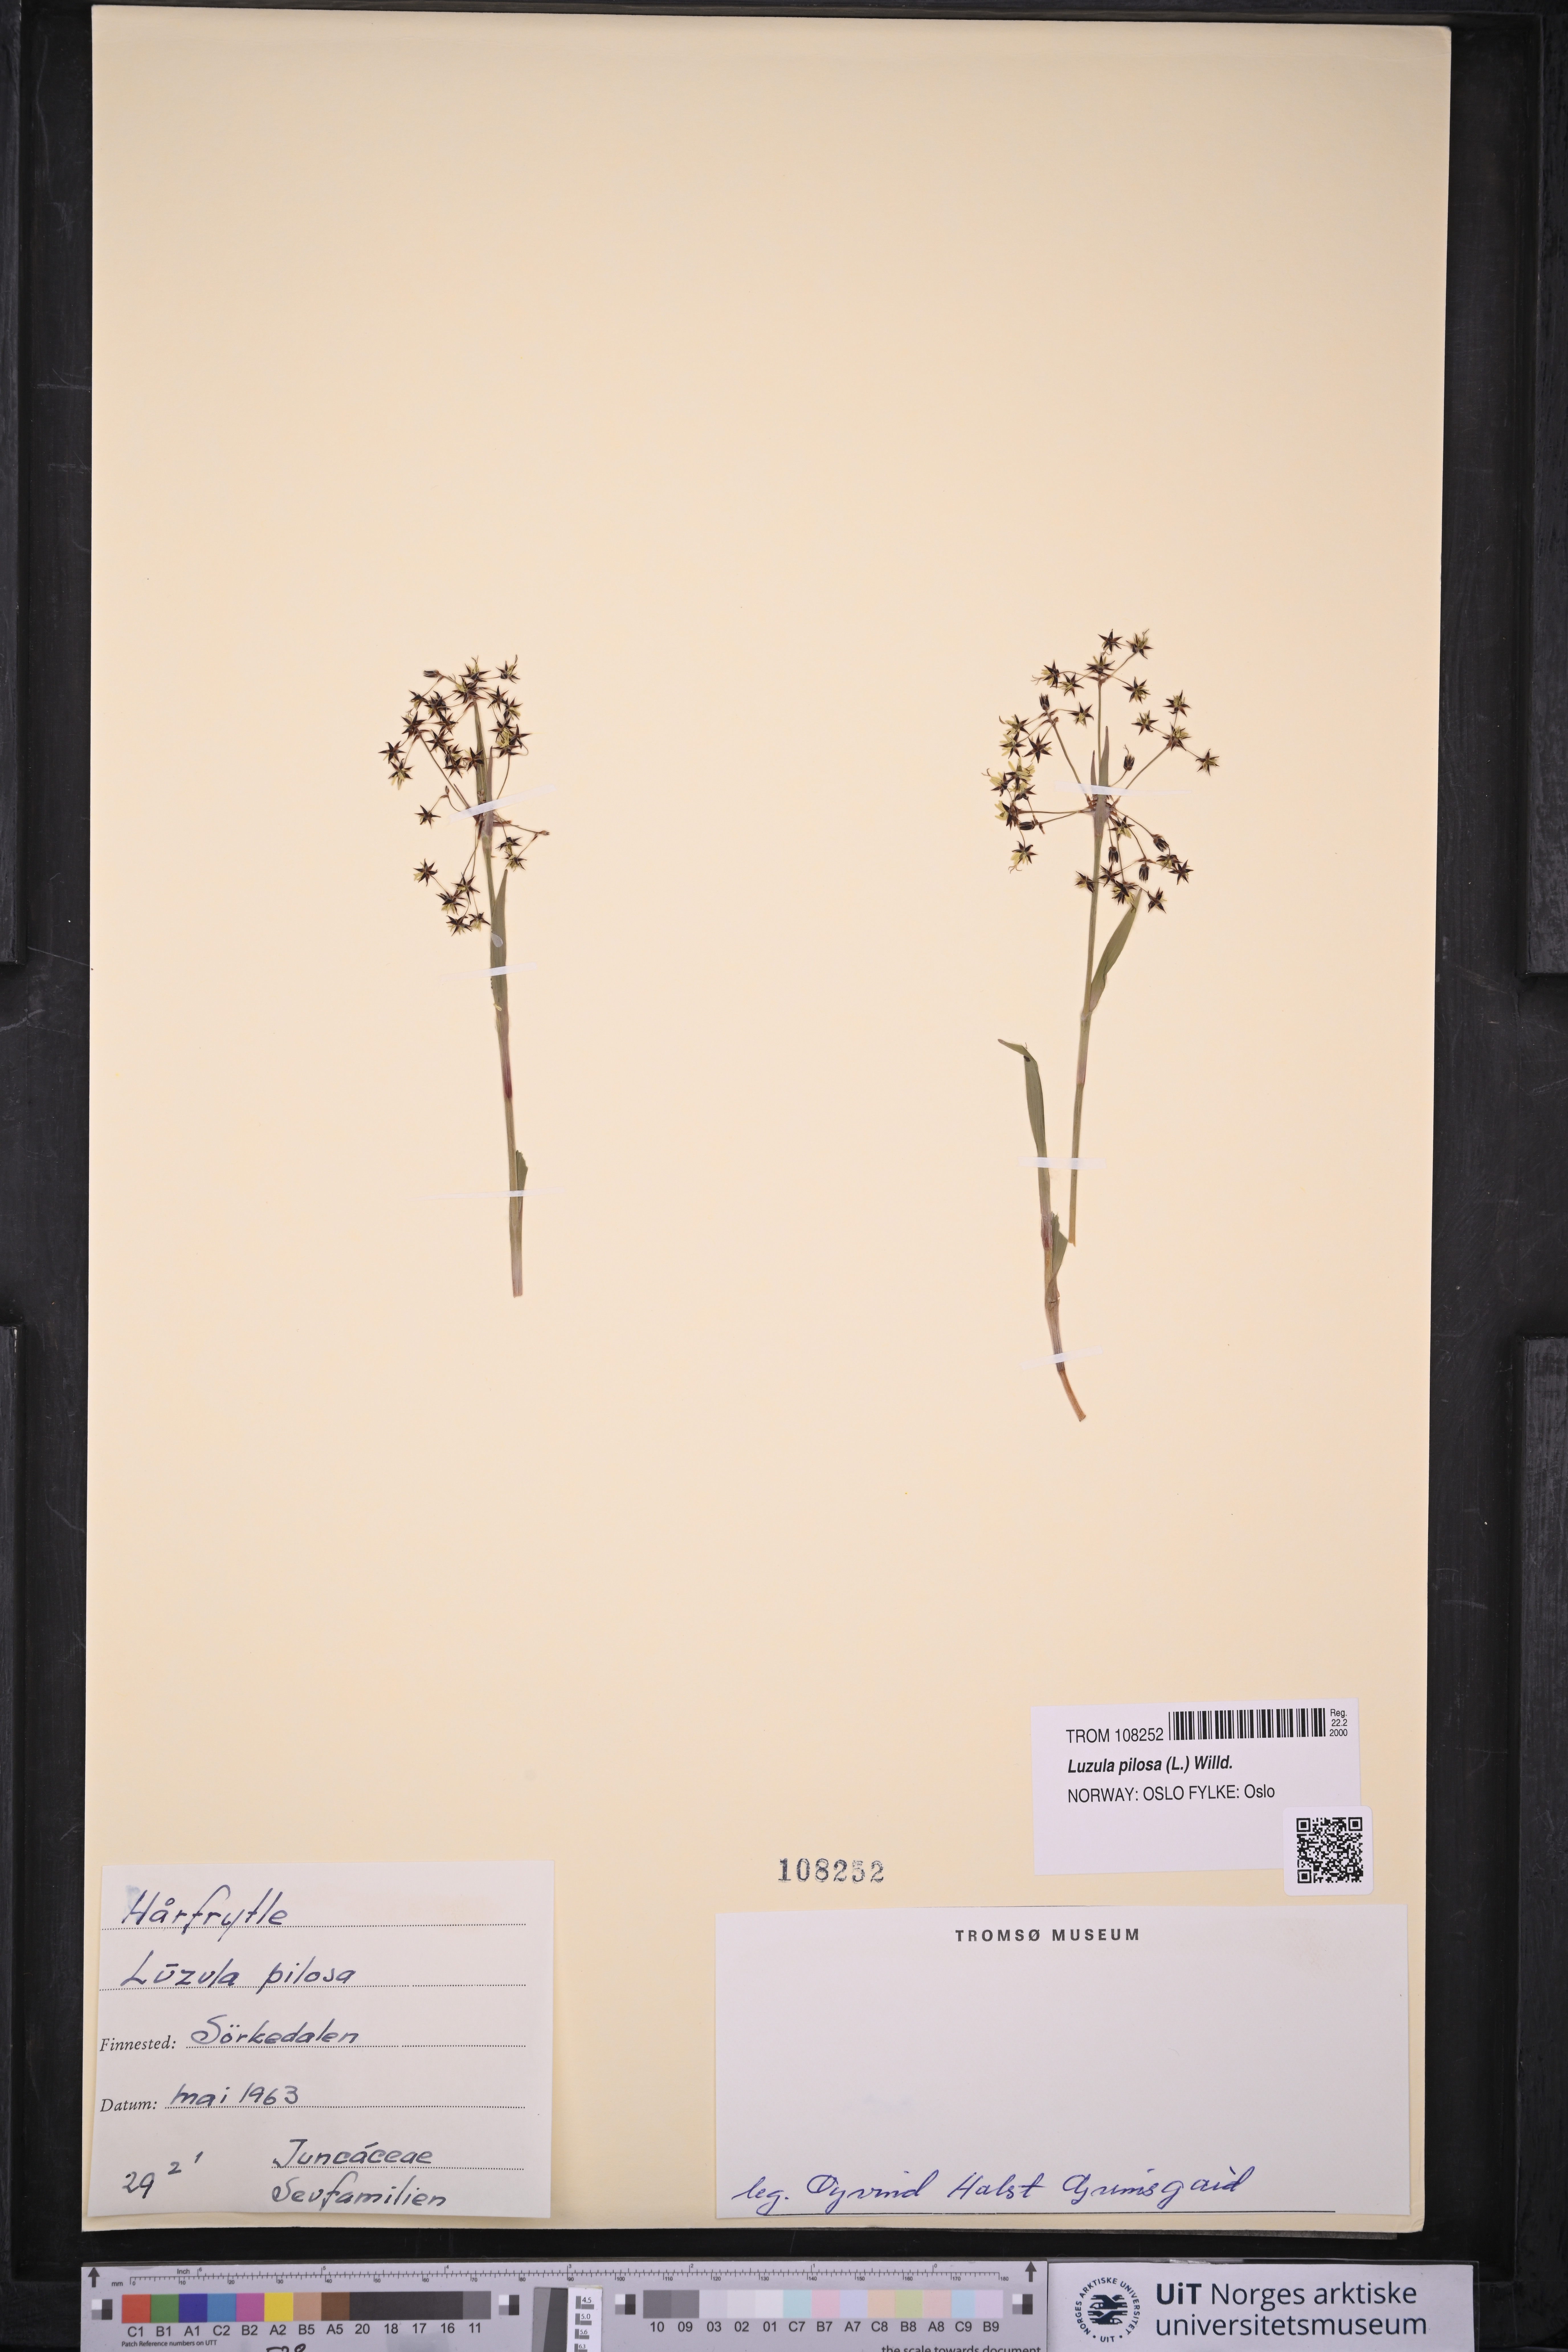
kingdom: Plantae
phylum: Tracheophyta
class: Liliopsida
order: Poales
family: Juncaceae
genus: Luzula
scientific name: Luzula pilosa
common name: Hairy wood-rush
